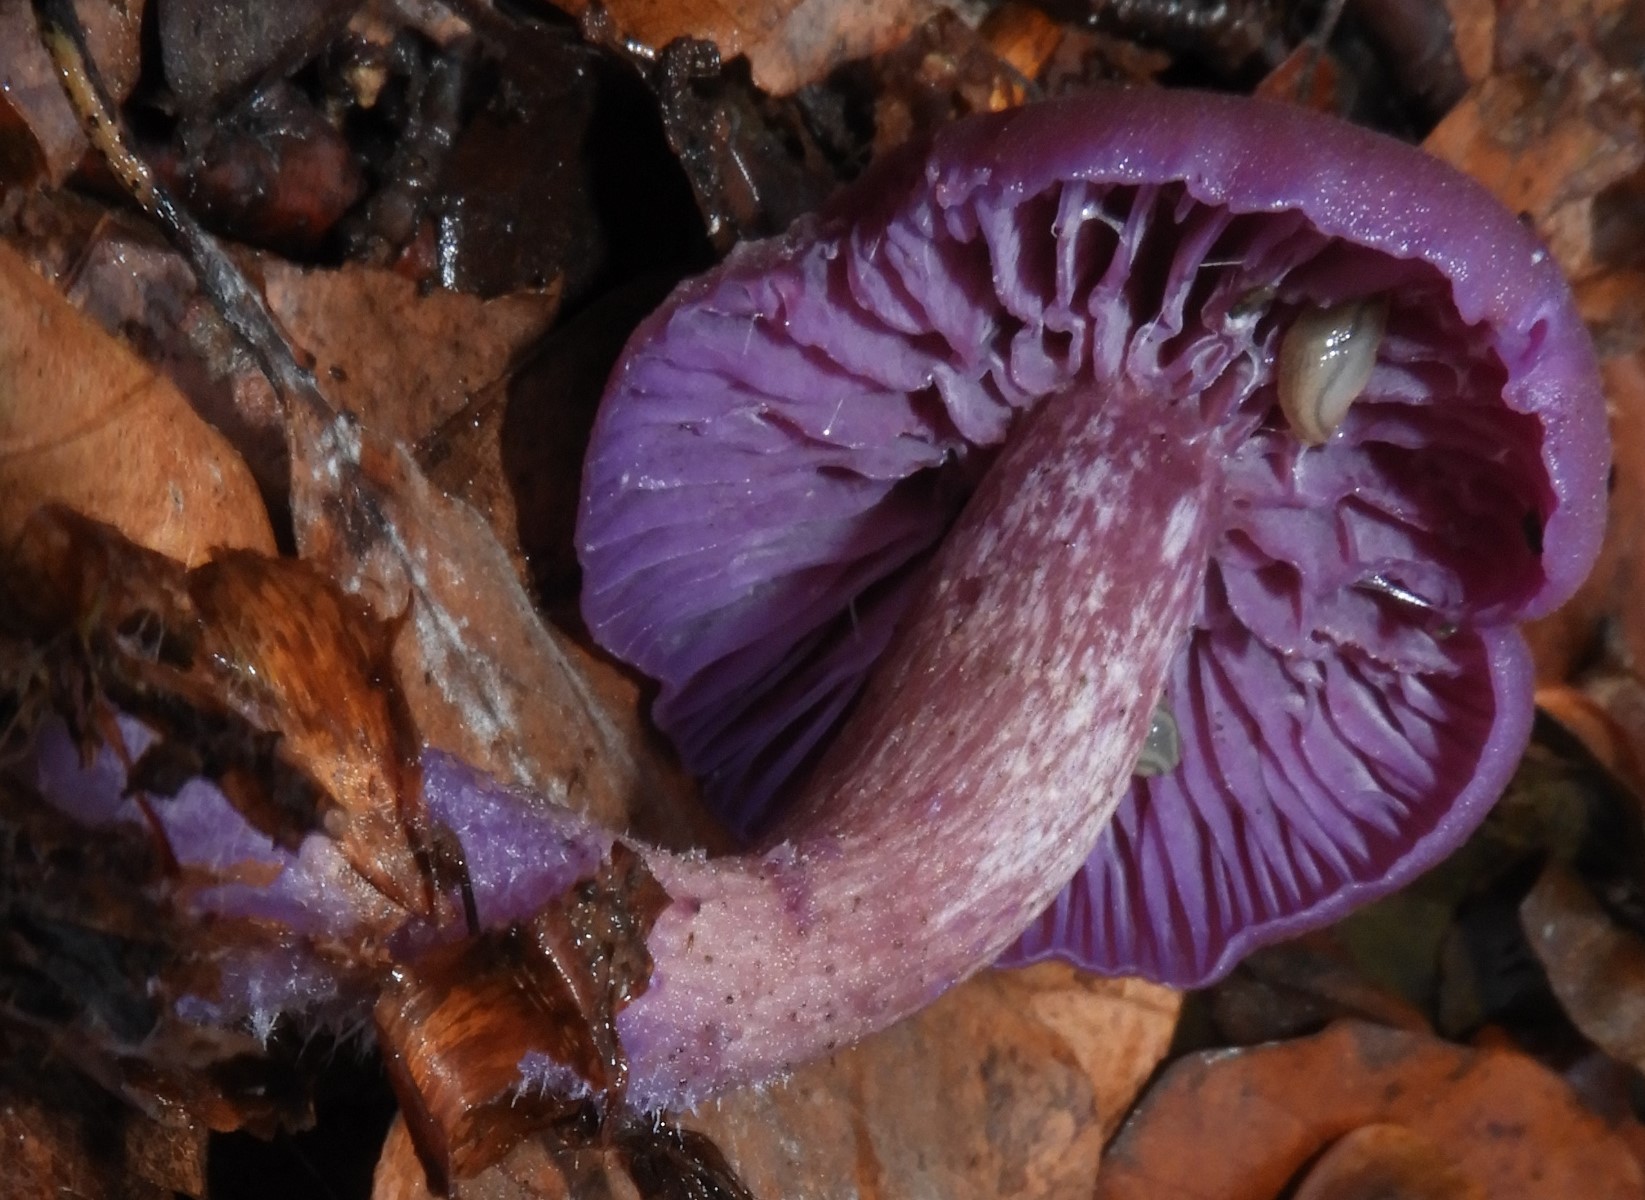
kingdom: Fungi
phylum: Basidiomycota
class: Agaricomycetes
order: Agaricales
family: Hydnangiaceae
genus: Laccaria
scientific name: Laccaria amethystina
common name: violet ametysthat
